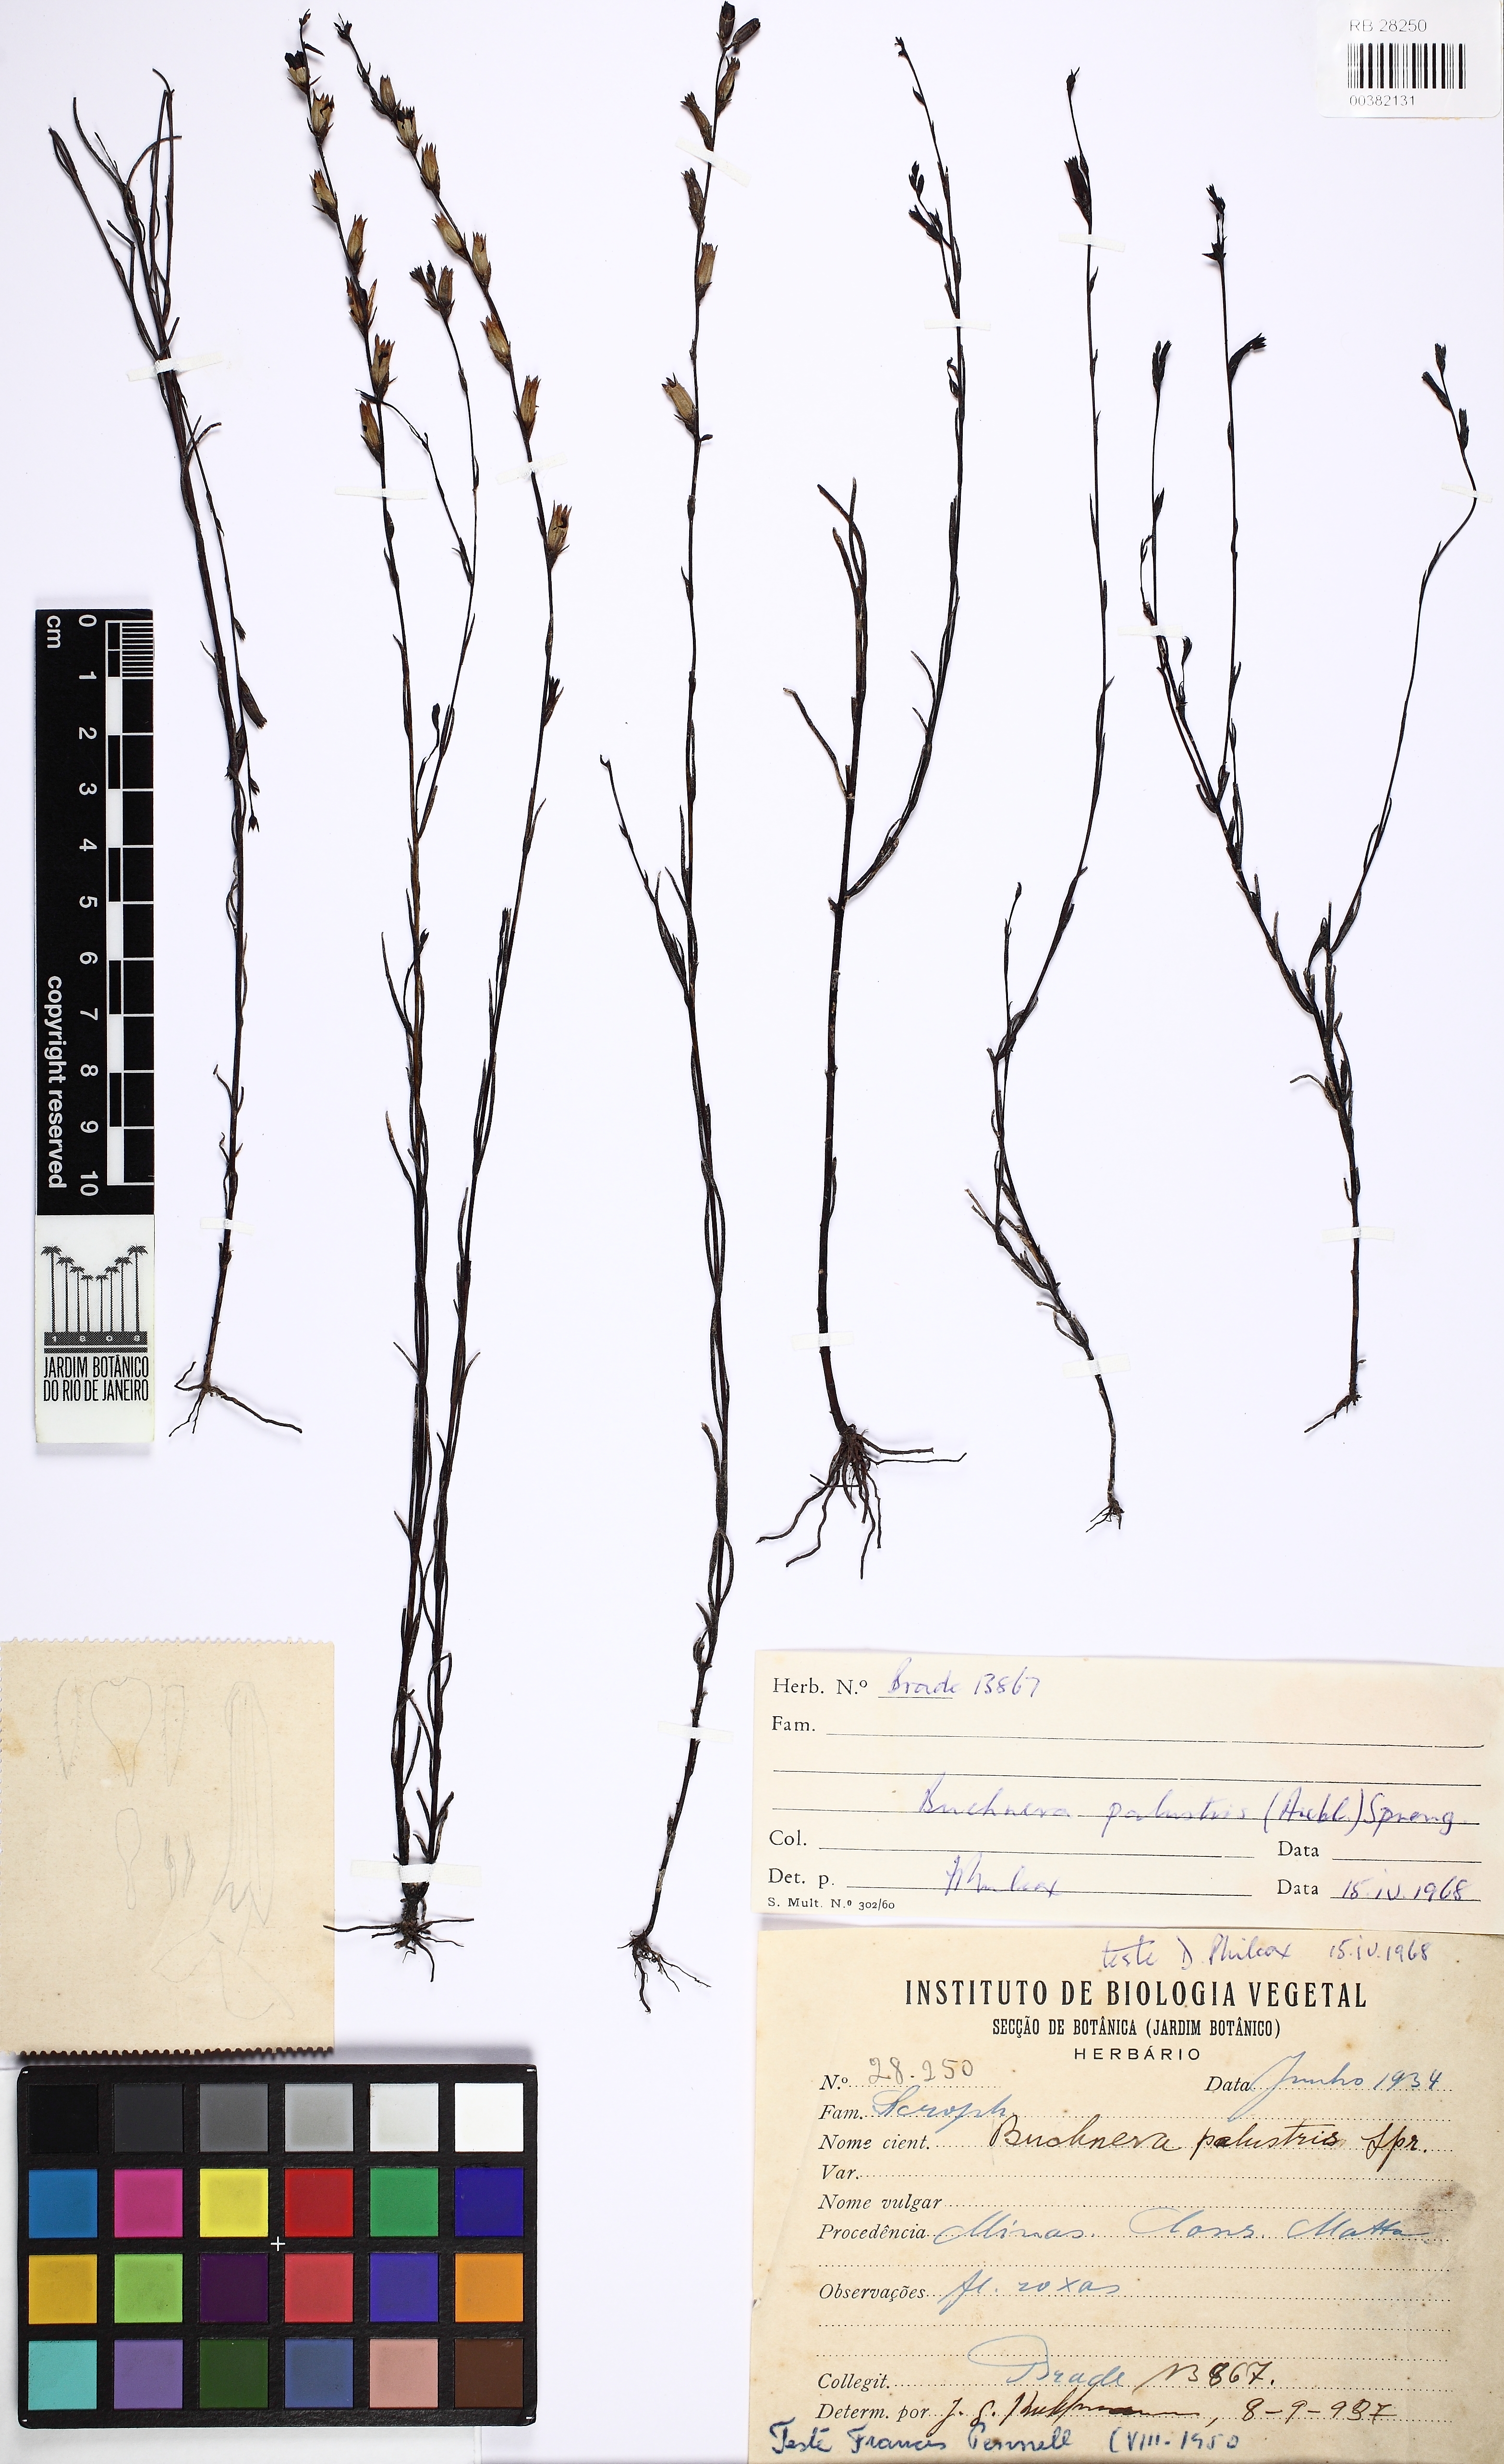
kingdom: Plantae
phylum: Tracheophyta
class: Magnoliopsida
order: Lamiales
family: Orobanchaceae
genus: Buchnera
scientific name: Buchnera palustris
